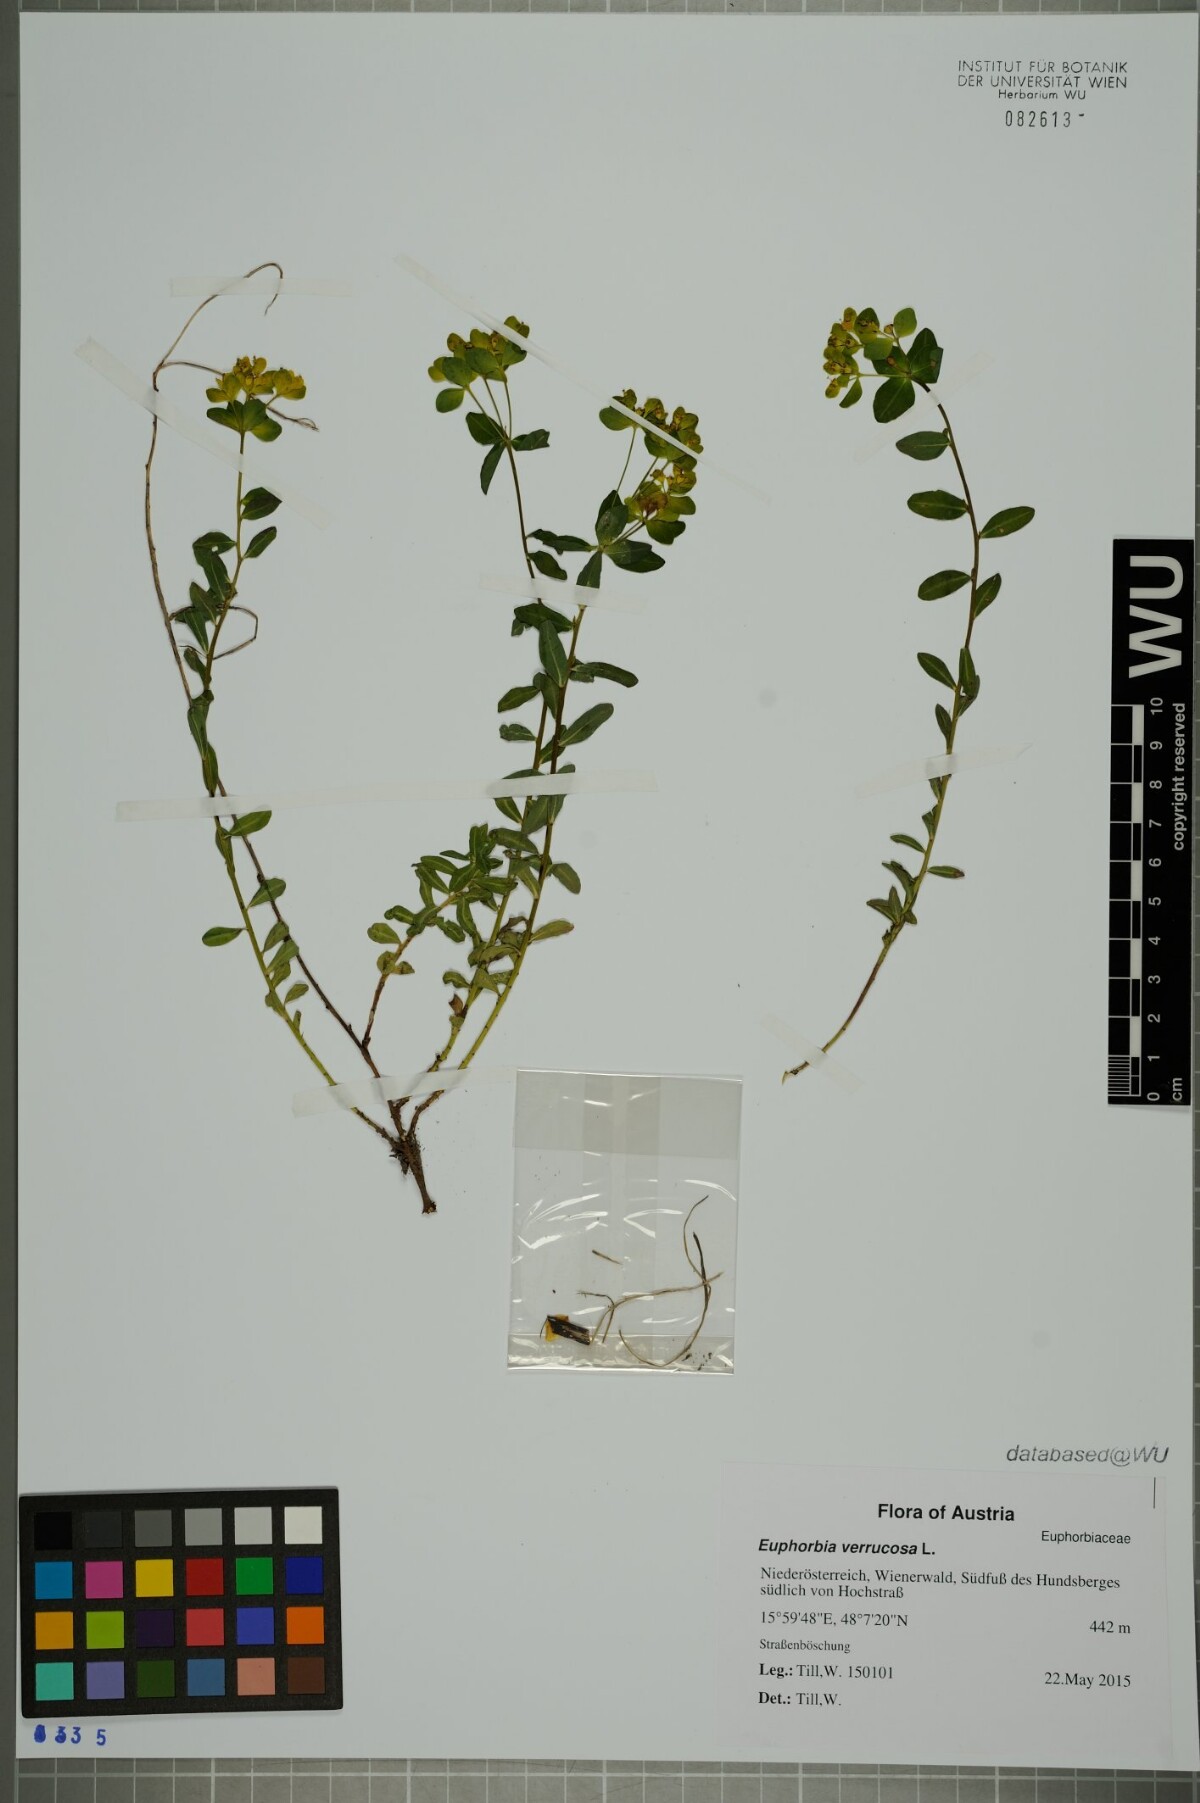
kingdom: Plantae
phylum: Tracheophyta
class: Magnoliopsida
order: Malpighiales
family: Euphorbiaceae
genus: Euphorbia
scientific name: Euphorbia verrucosa
